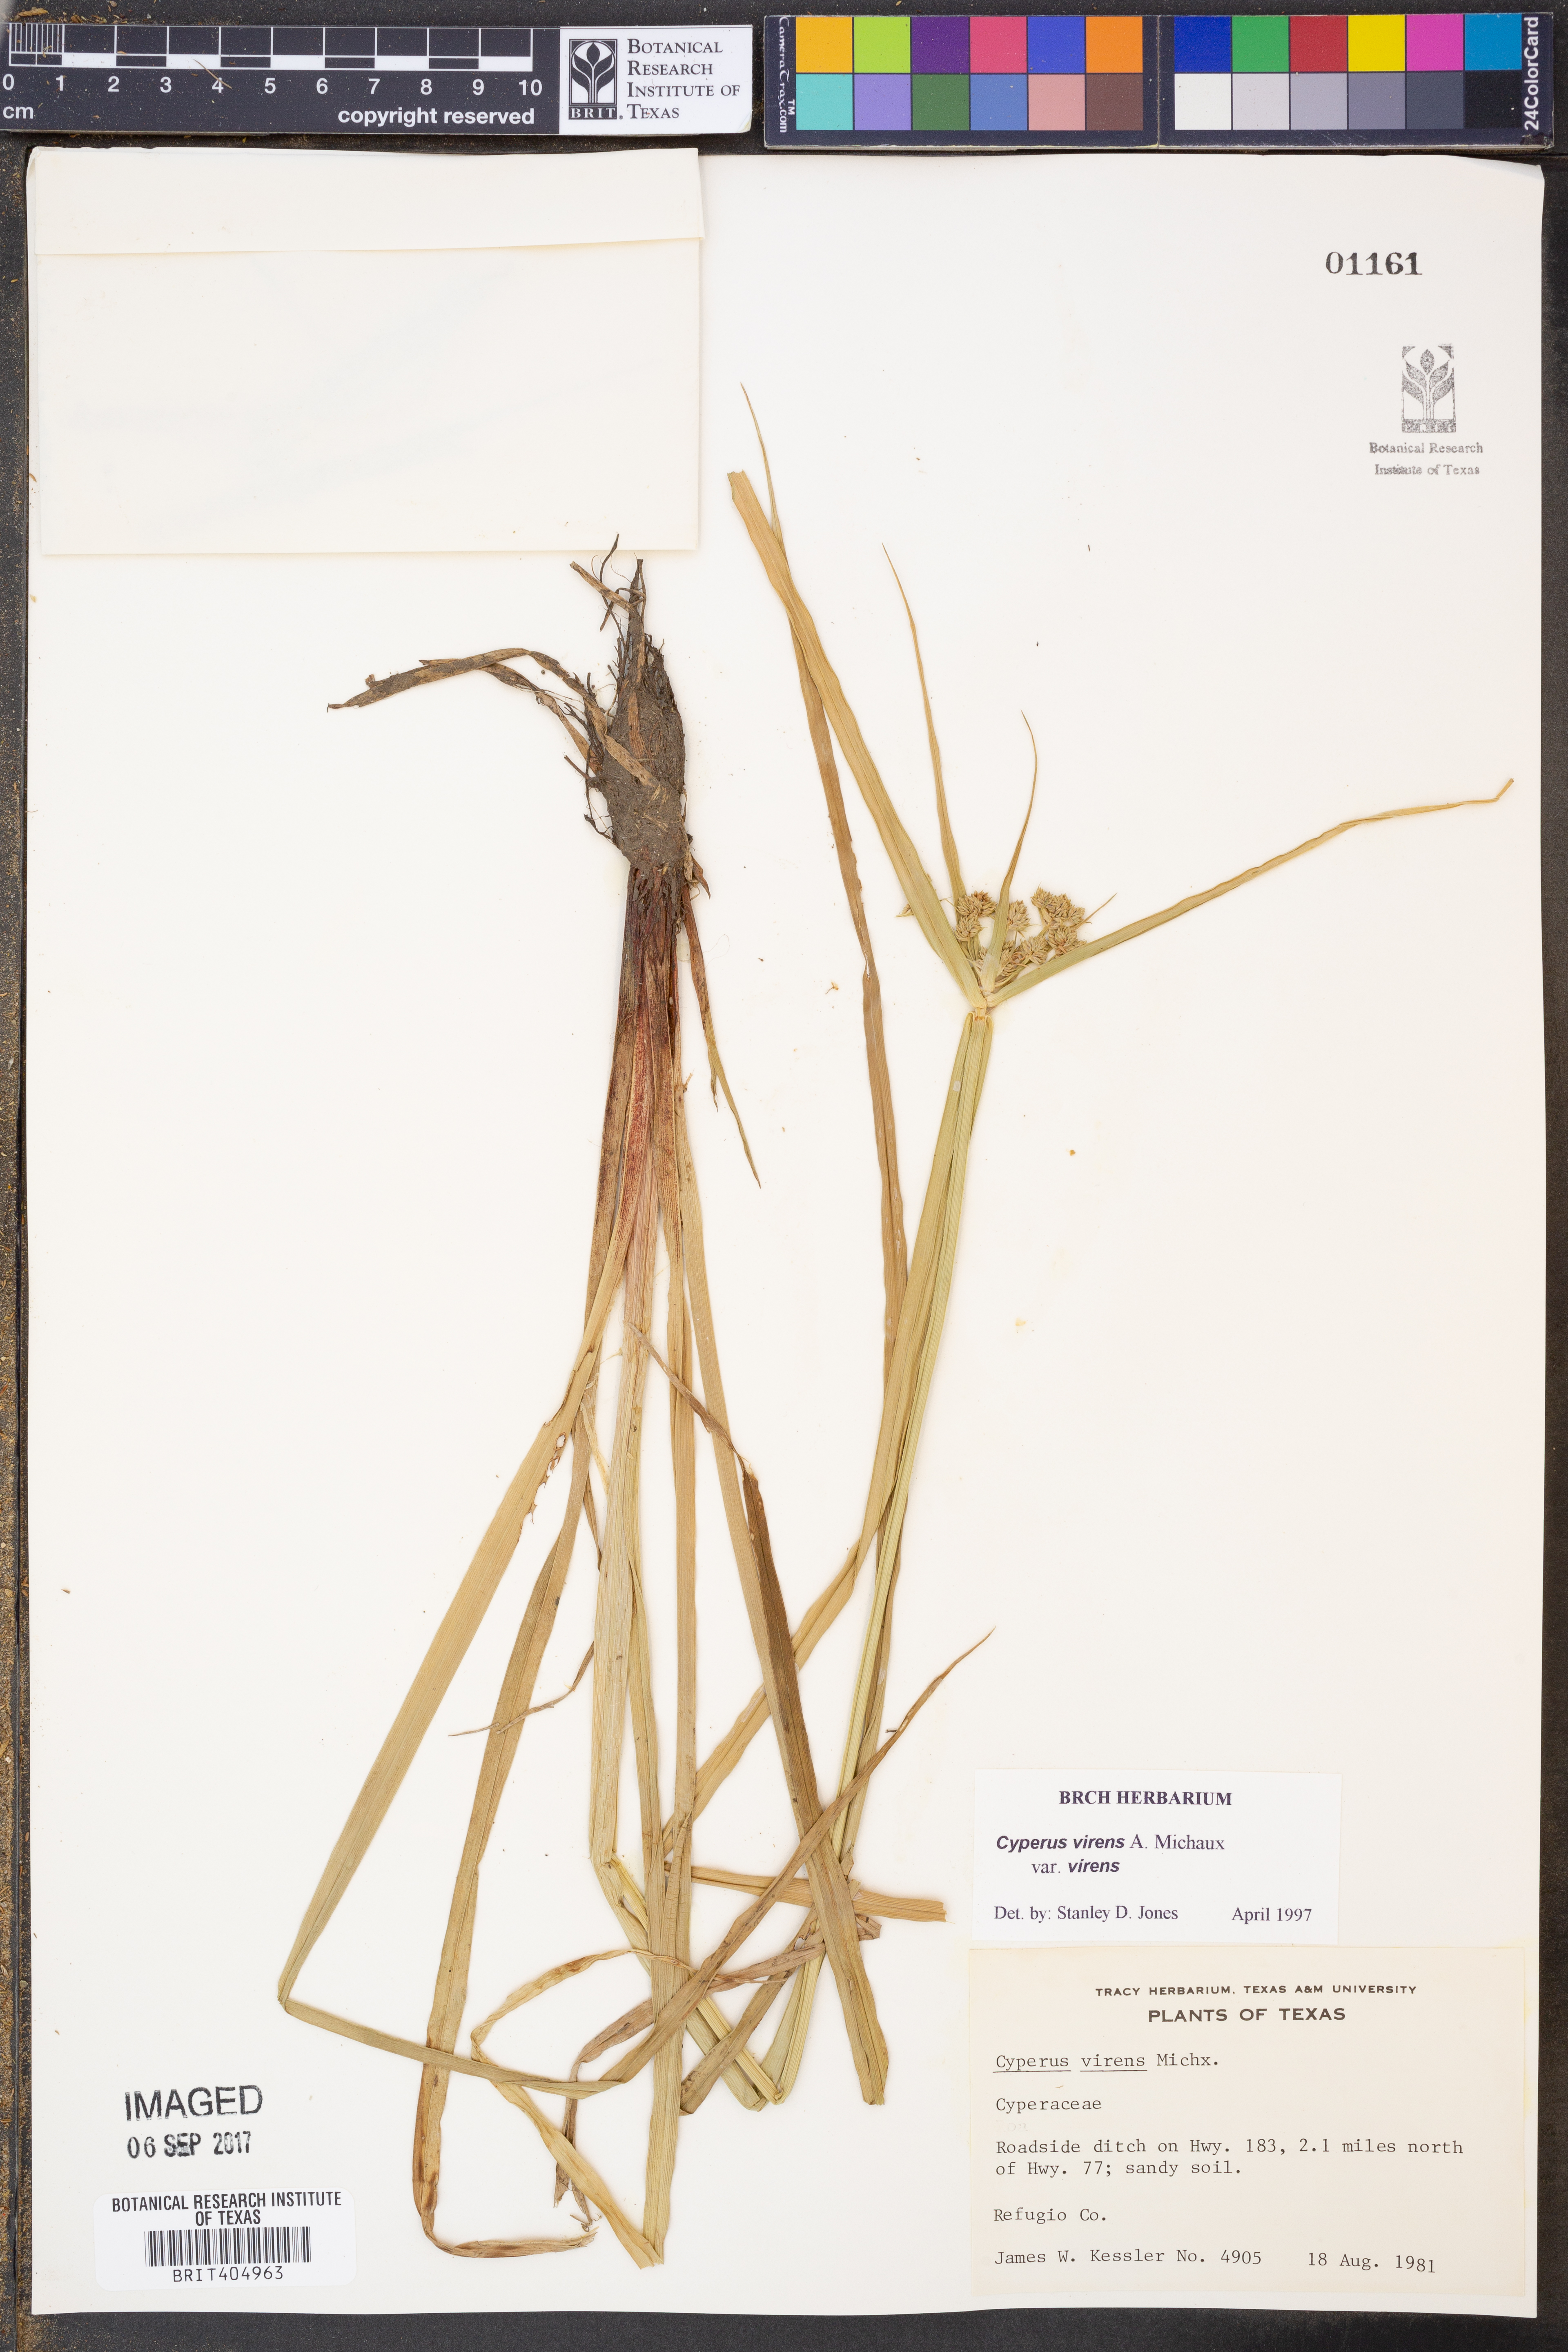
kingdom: Plantae
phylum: Tracheophyta
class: Liliopsida
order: Poales
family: Cyperaceae
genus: Cyperus
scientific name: Cyperus virens
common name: Green flatsedge
